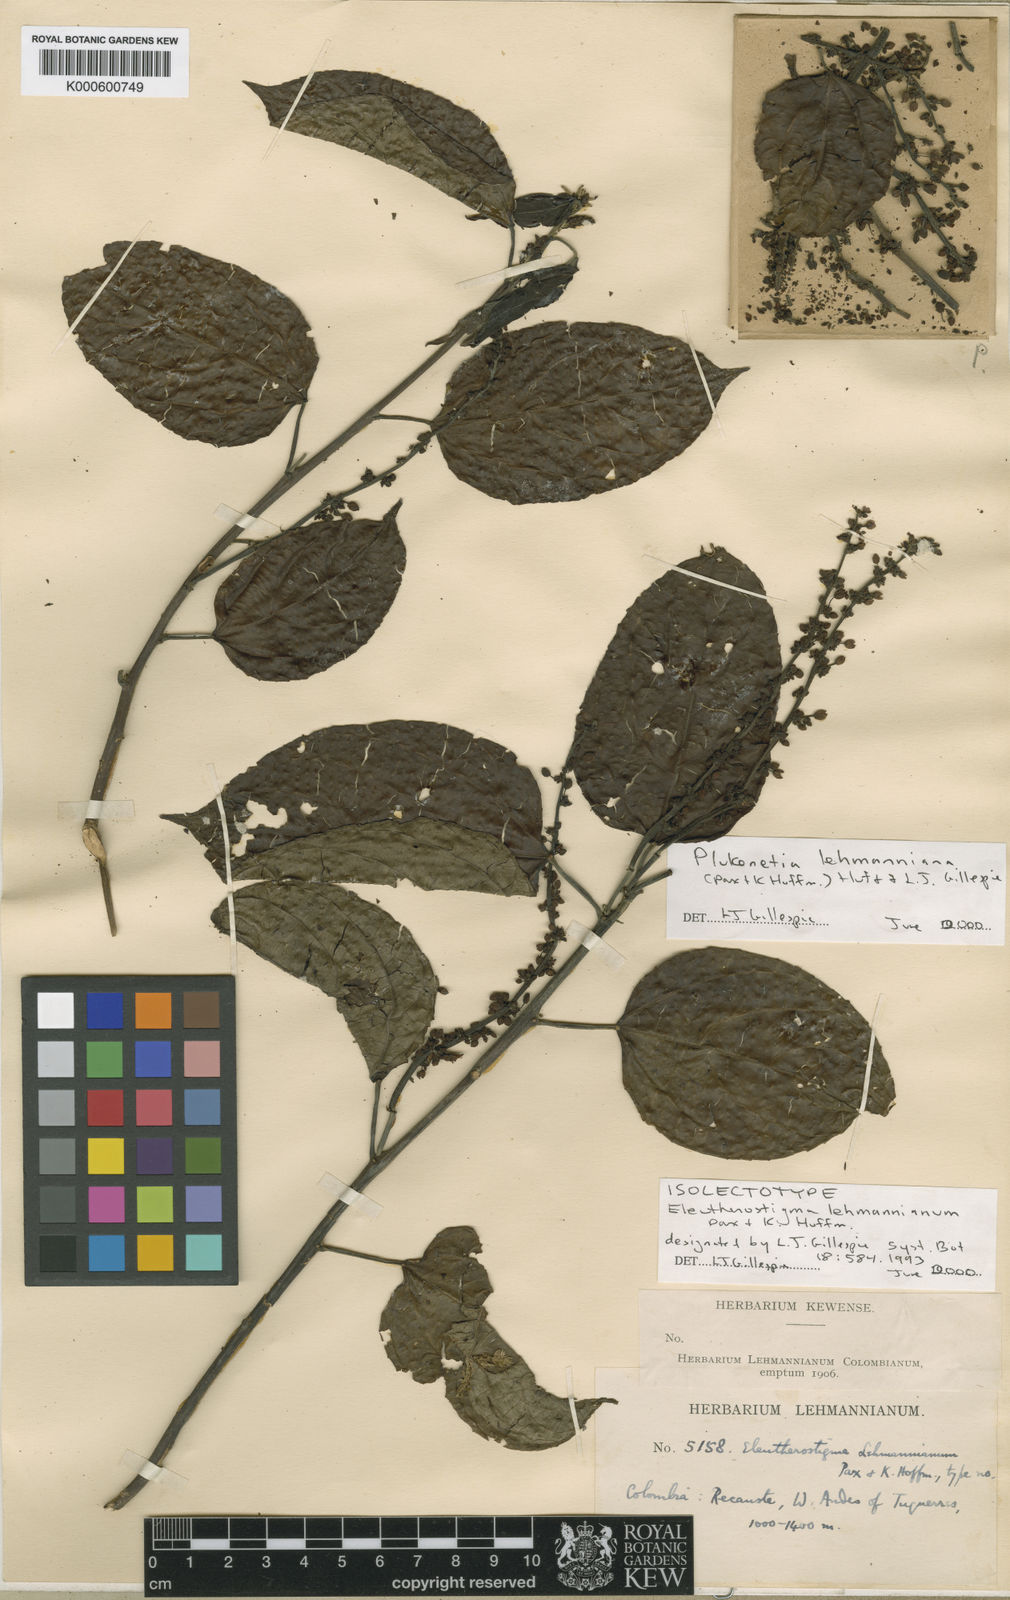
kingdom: Plantae
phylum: Tracheophyta
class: Magnoliopsida
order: Malpighiales
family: Euphorbiaceae
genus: Plukenetia
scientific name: Plukenetia lehmanniana
